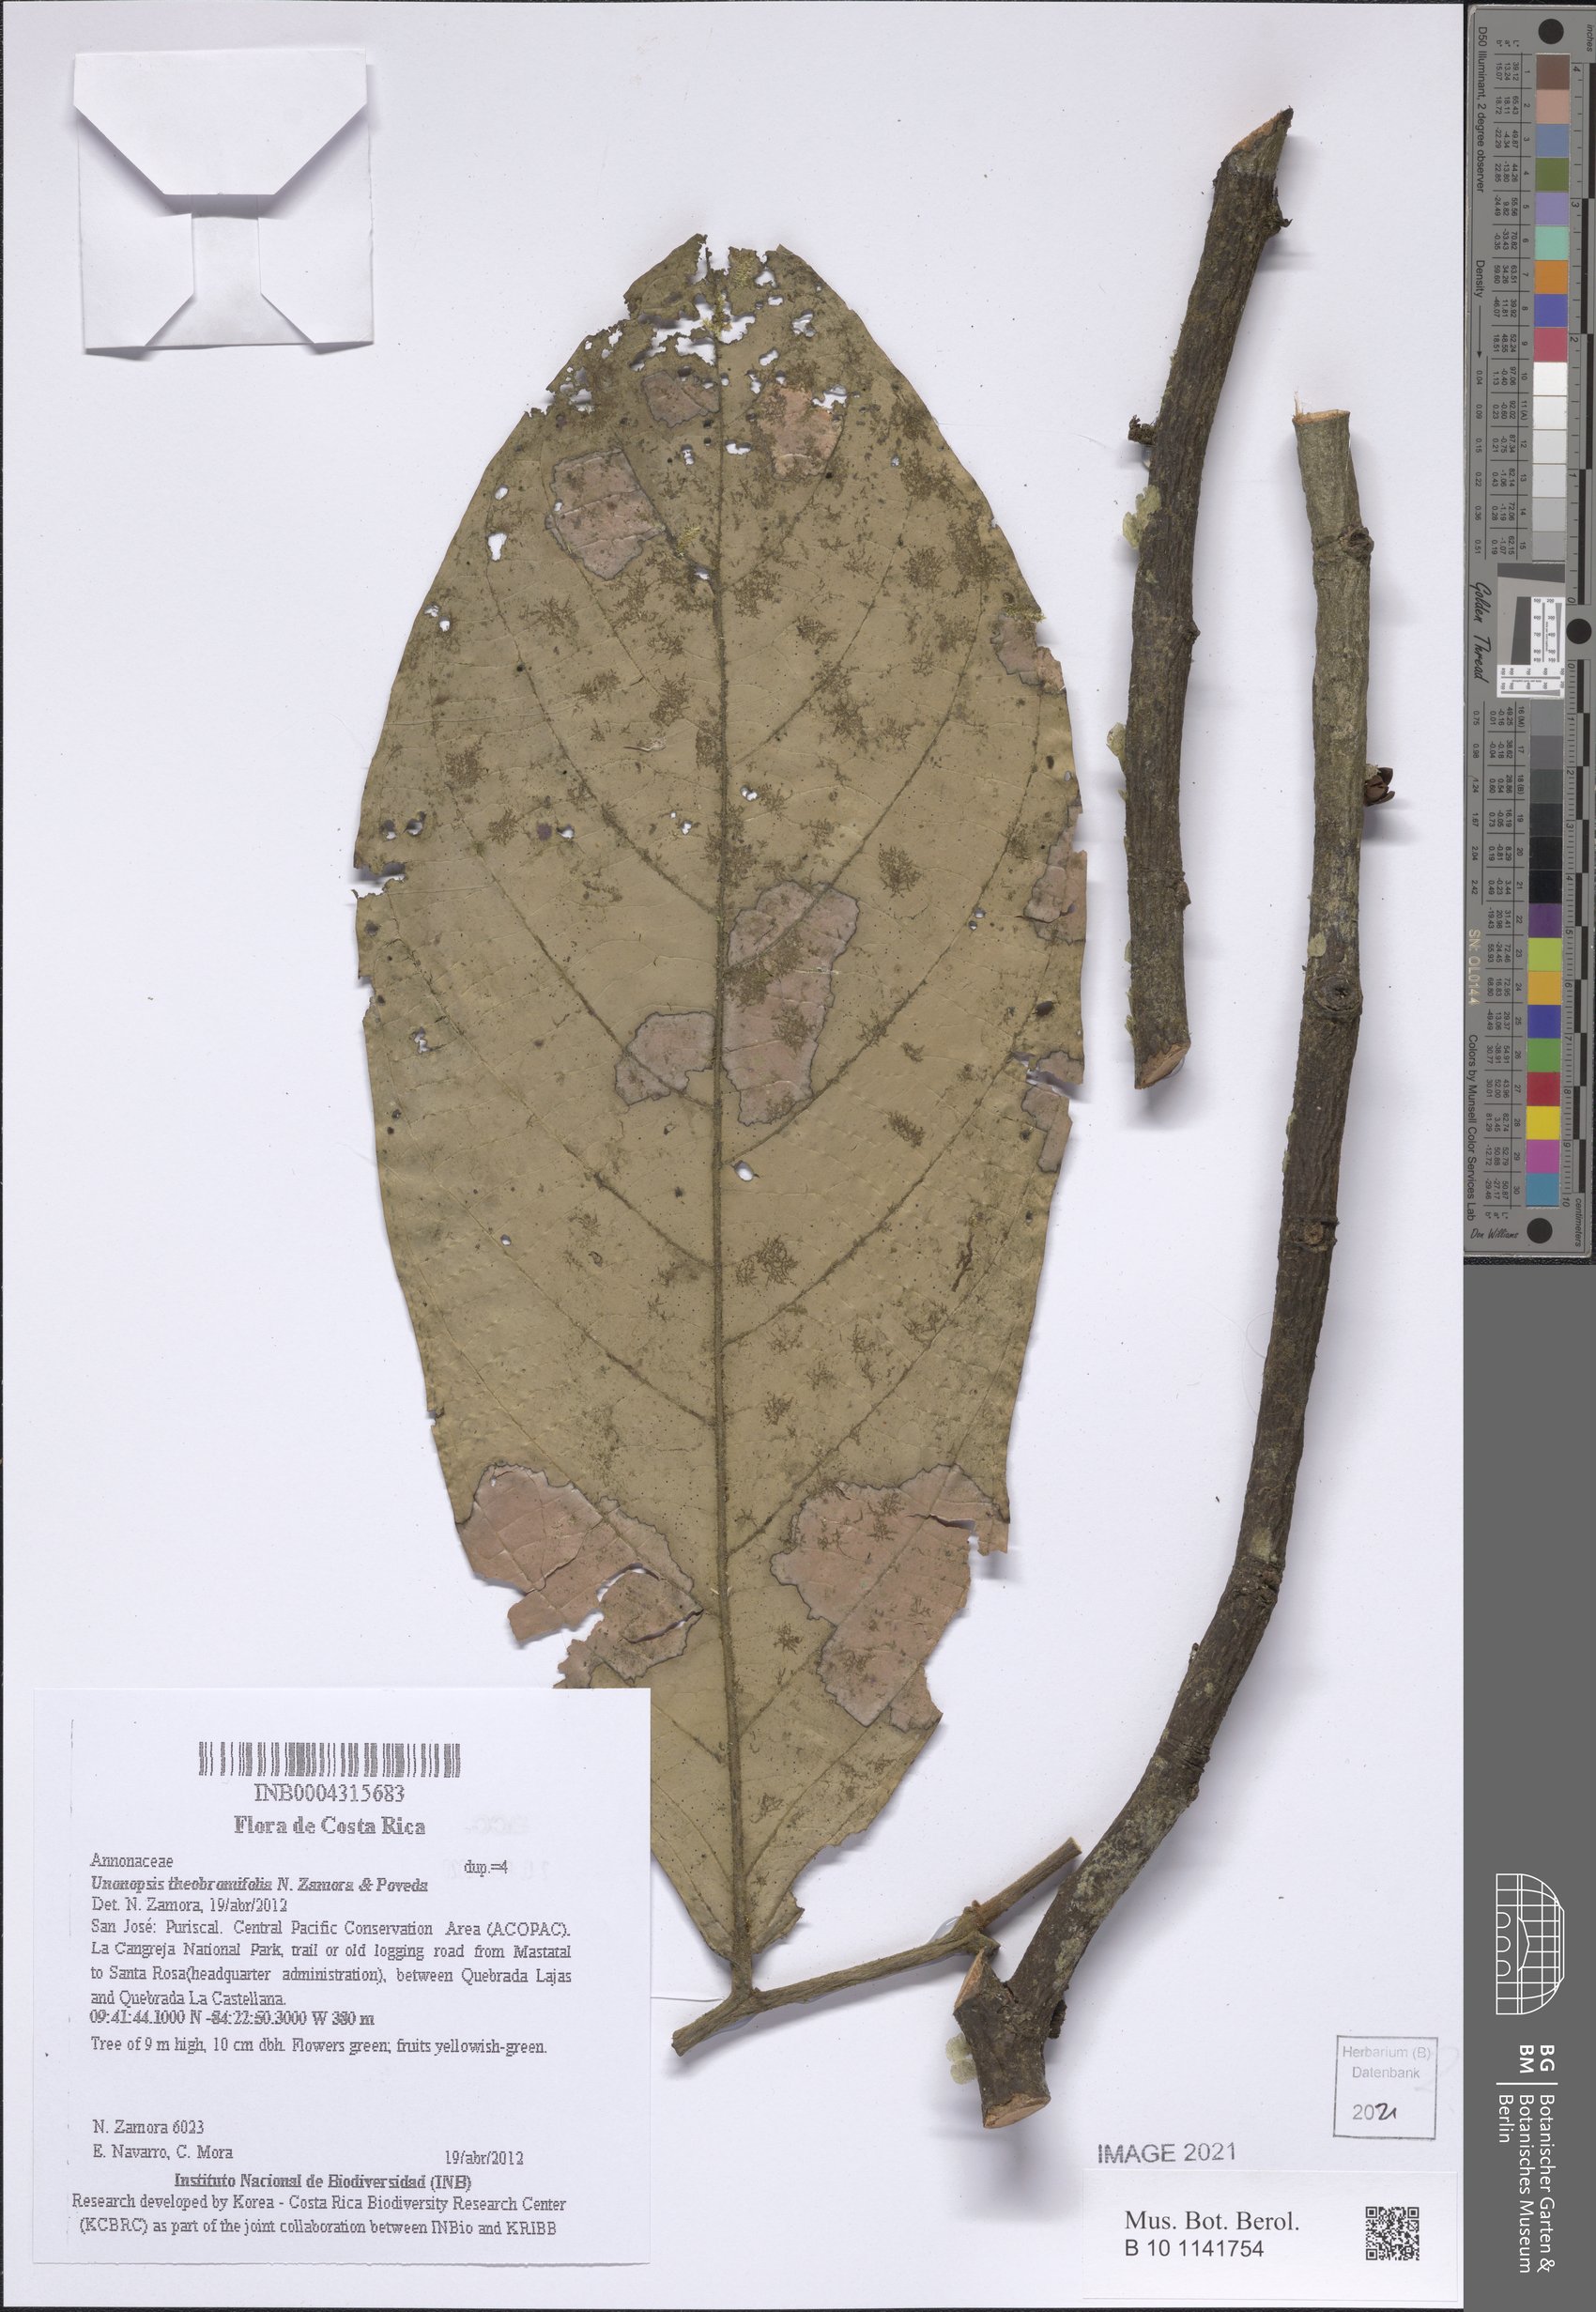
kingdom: Plantae
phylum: Tracheophyta
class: Magnoliopsida
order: Magnoliales
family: Annonaceae
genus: Unonopsis
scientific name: Unonopsis theobromifolia
